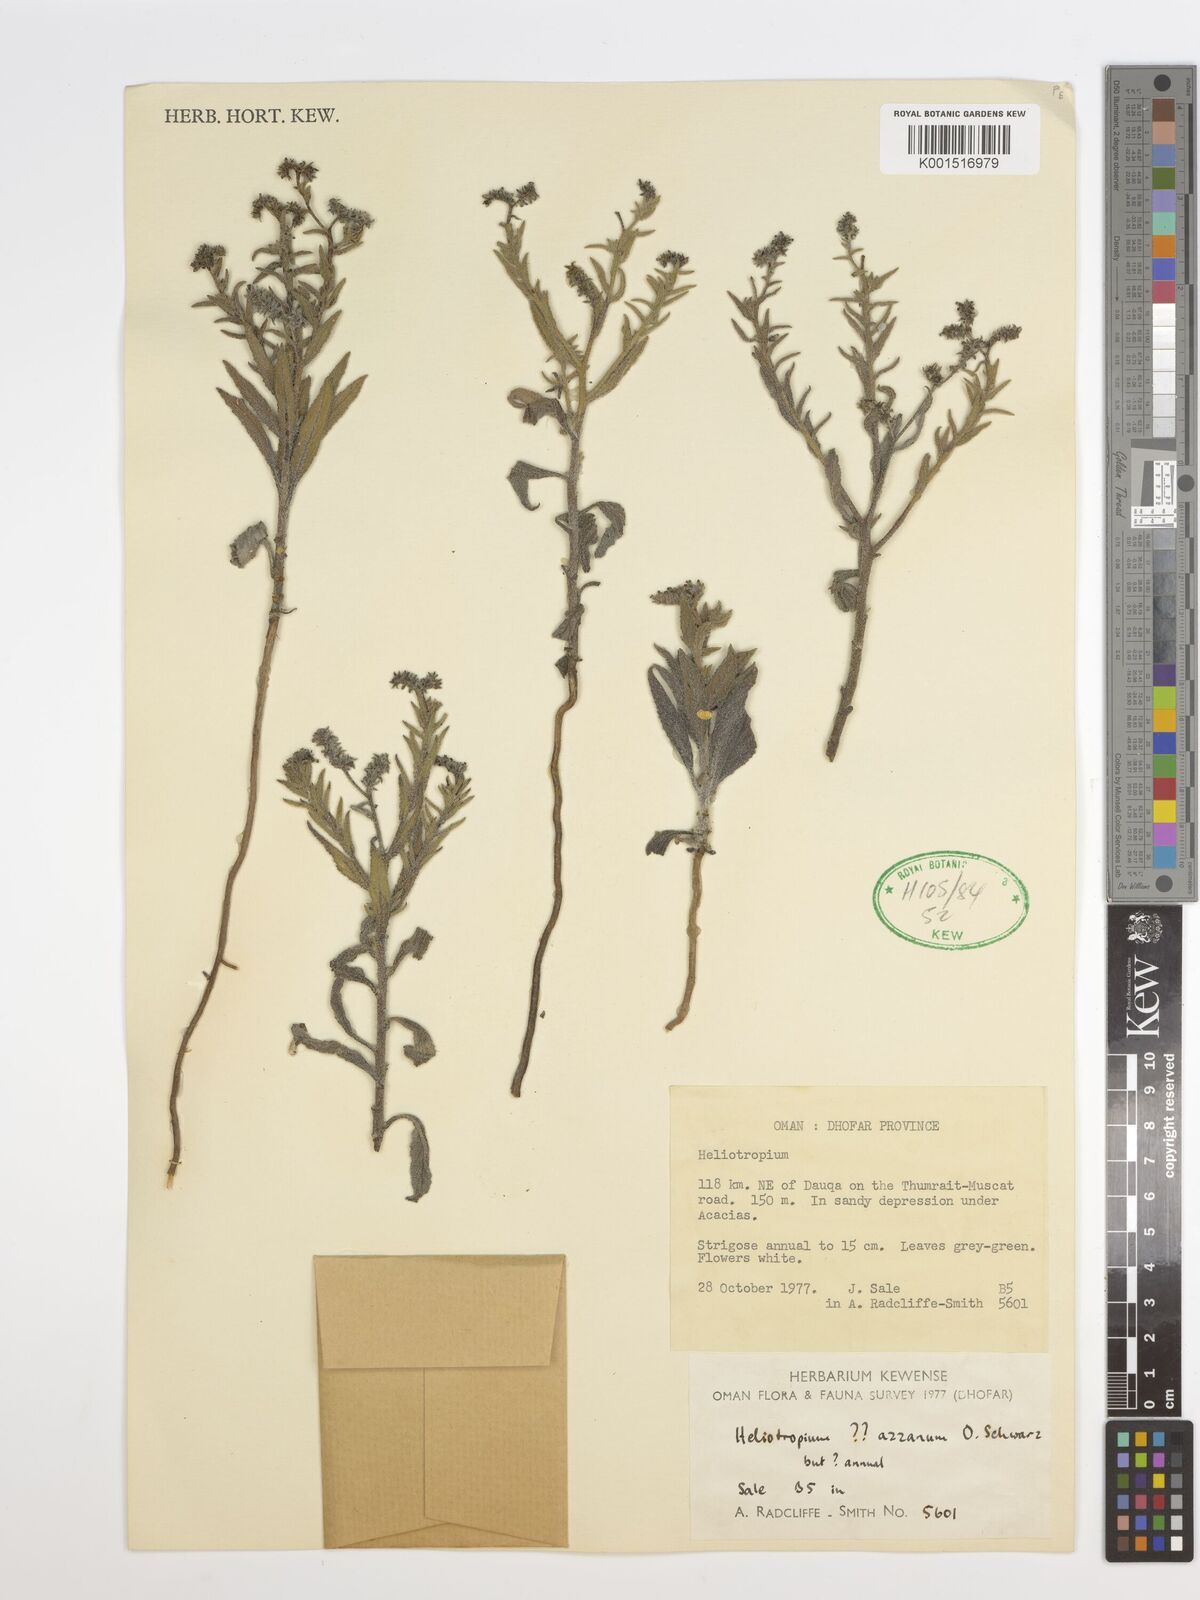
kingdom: Plantae
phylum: Tracheophyta
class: Magnoliopsida
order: Boraginales
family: Heliotropiaceae
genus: Heliotropium
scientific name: Heliotropium azzanum
